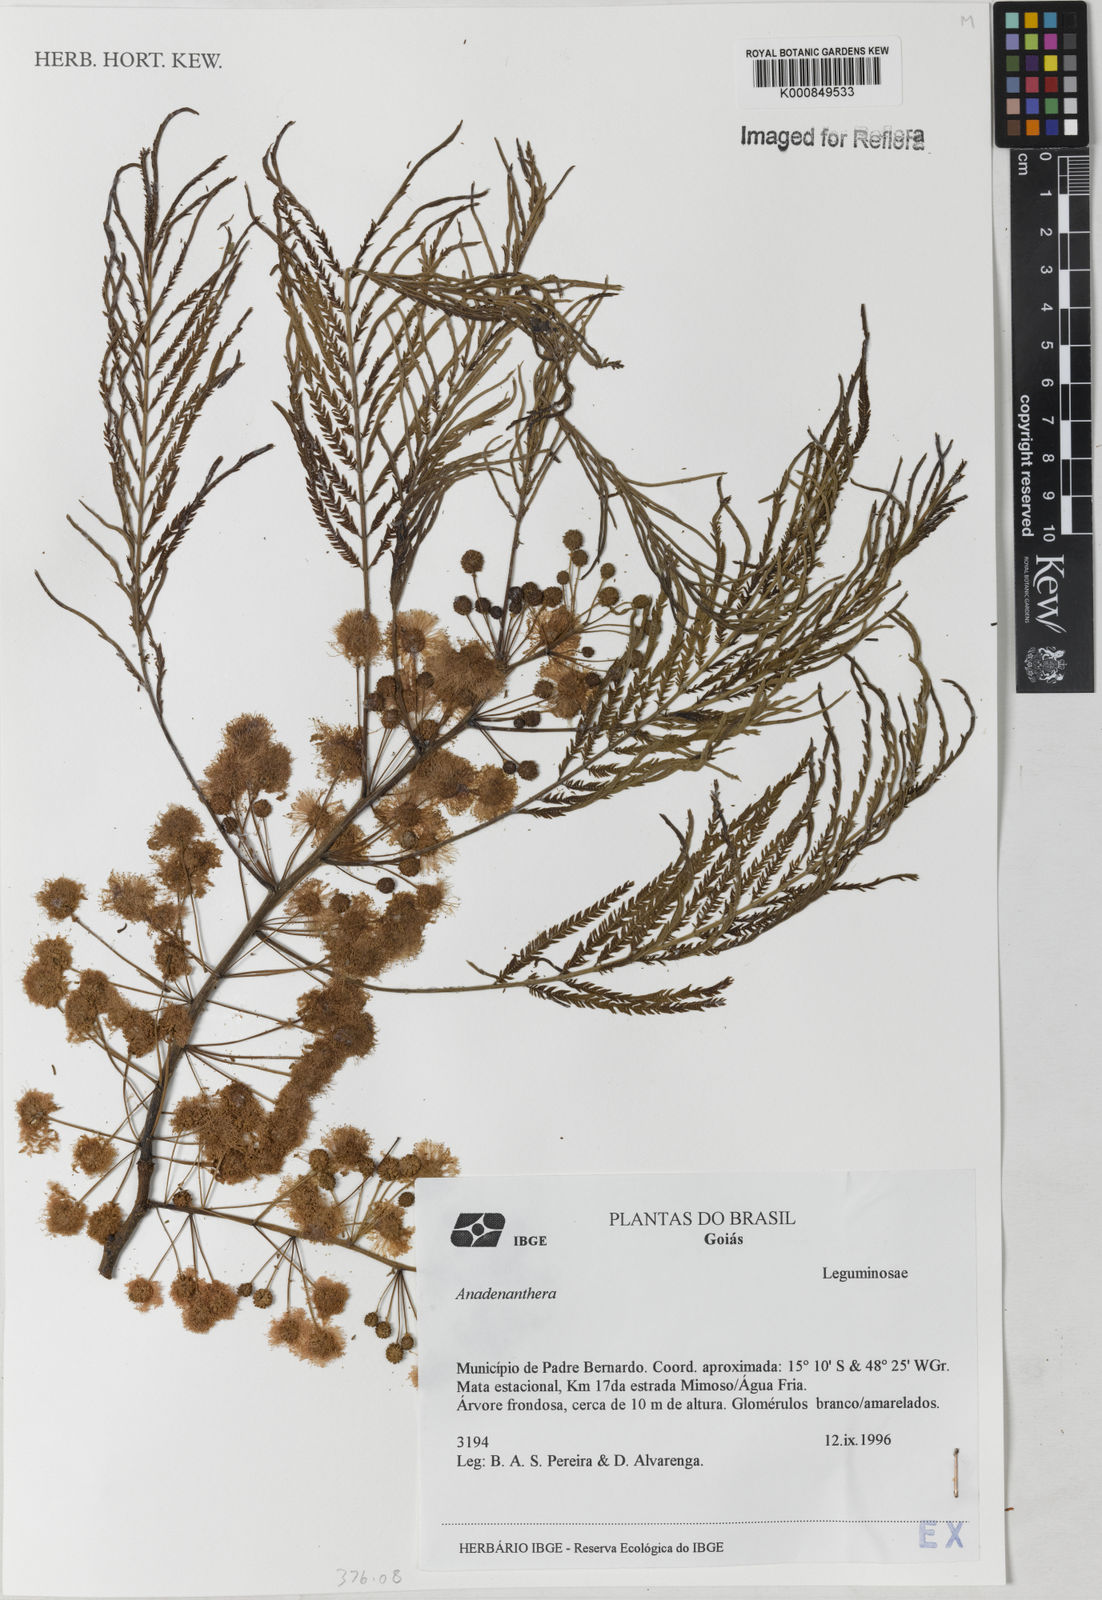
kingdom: Plantae
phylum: Tracheophyta
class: Magnoliopsida
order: Fabales
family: Fabaceae
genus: Anadenanthera
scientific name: Anadenanthera
